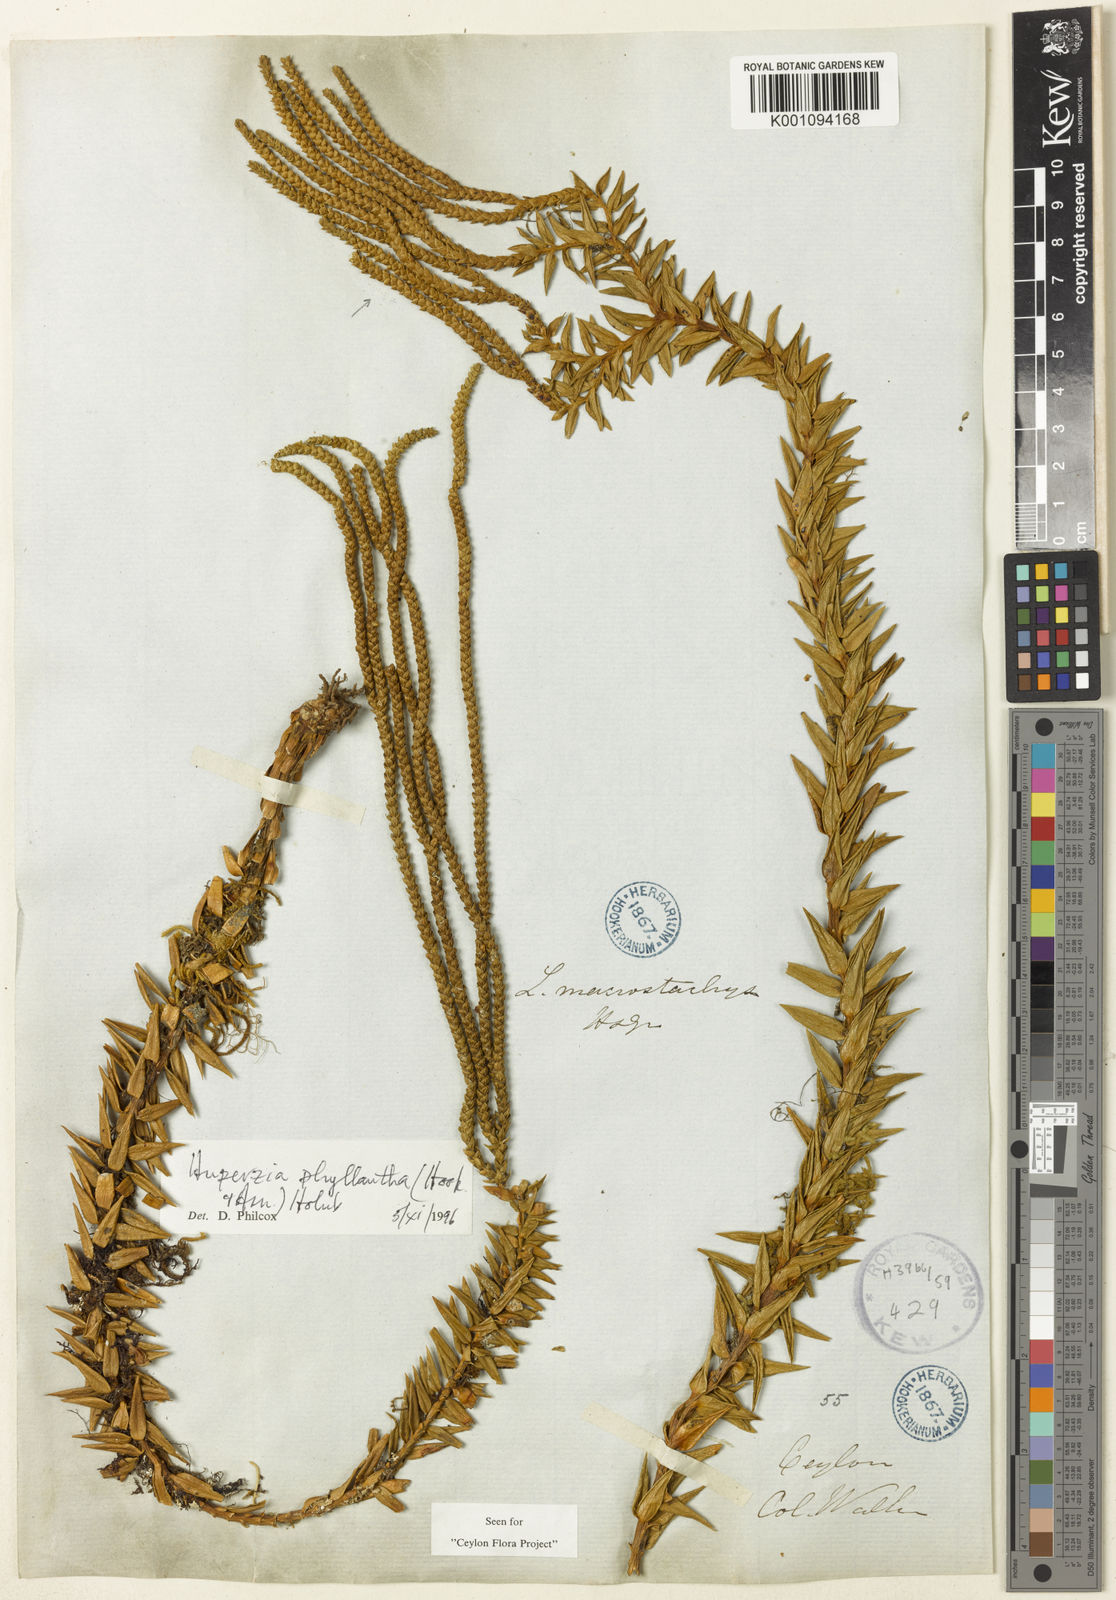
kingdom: Plantae
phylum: Tracheophyta
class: Lycopodiopsida
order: Lycopodiales
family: Lycopodiaceae
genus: Phlegmariurus
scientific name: Phlegmariurus phyllanthus
